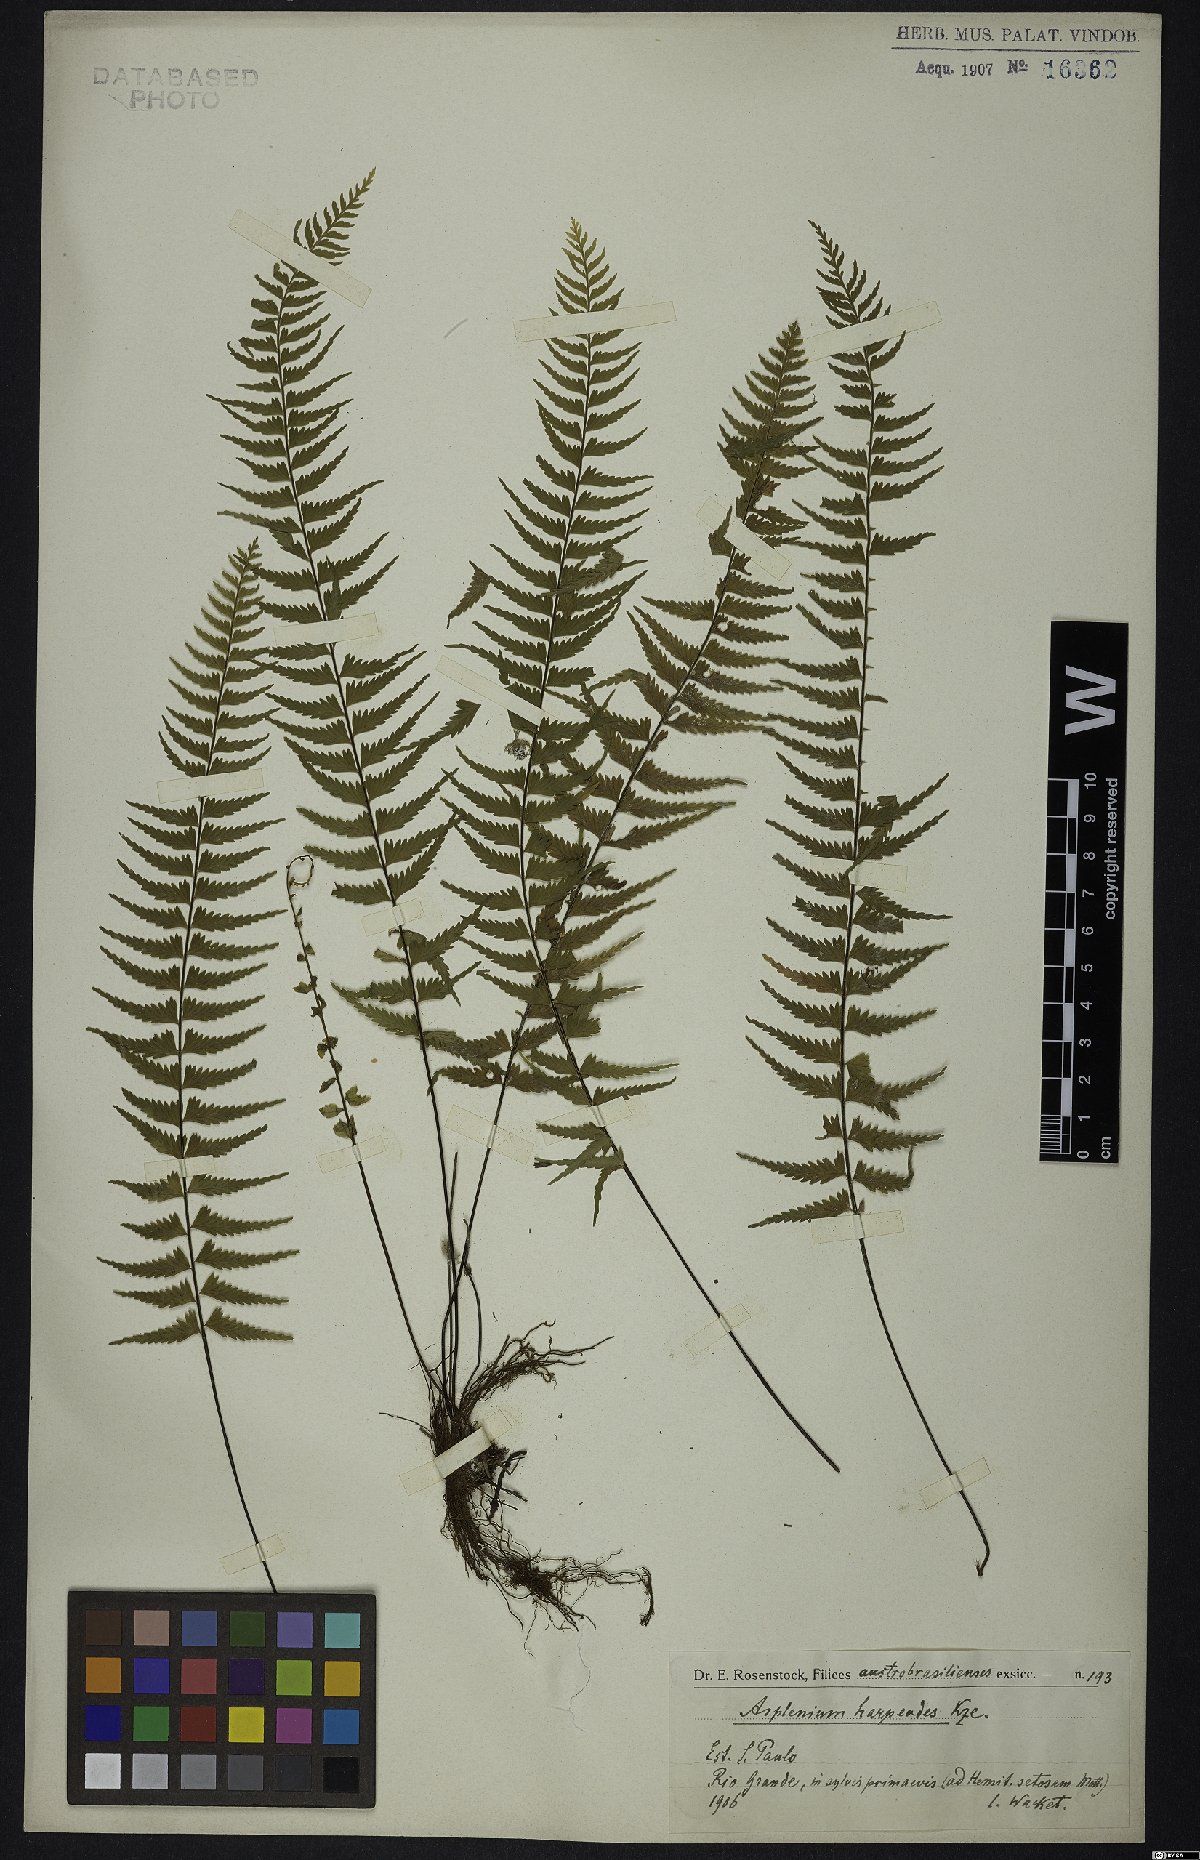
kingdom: Plantae
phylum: Tracheophyta
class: Polypodiopsida
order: Polypodiales
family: Aspleniaceae
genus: Asplenium
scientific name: Asplenium lunulatum
